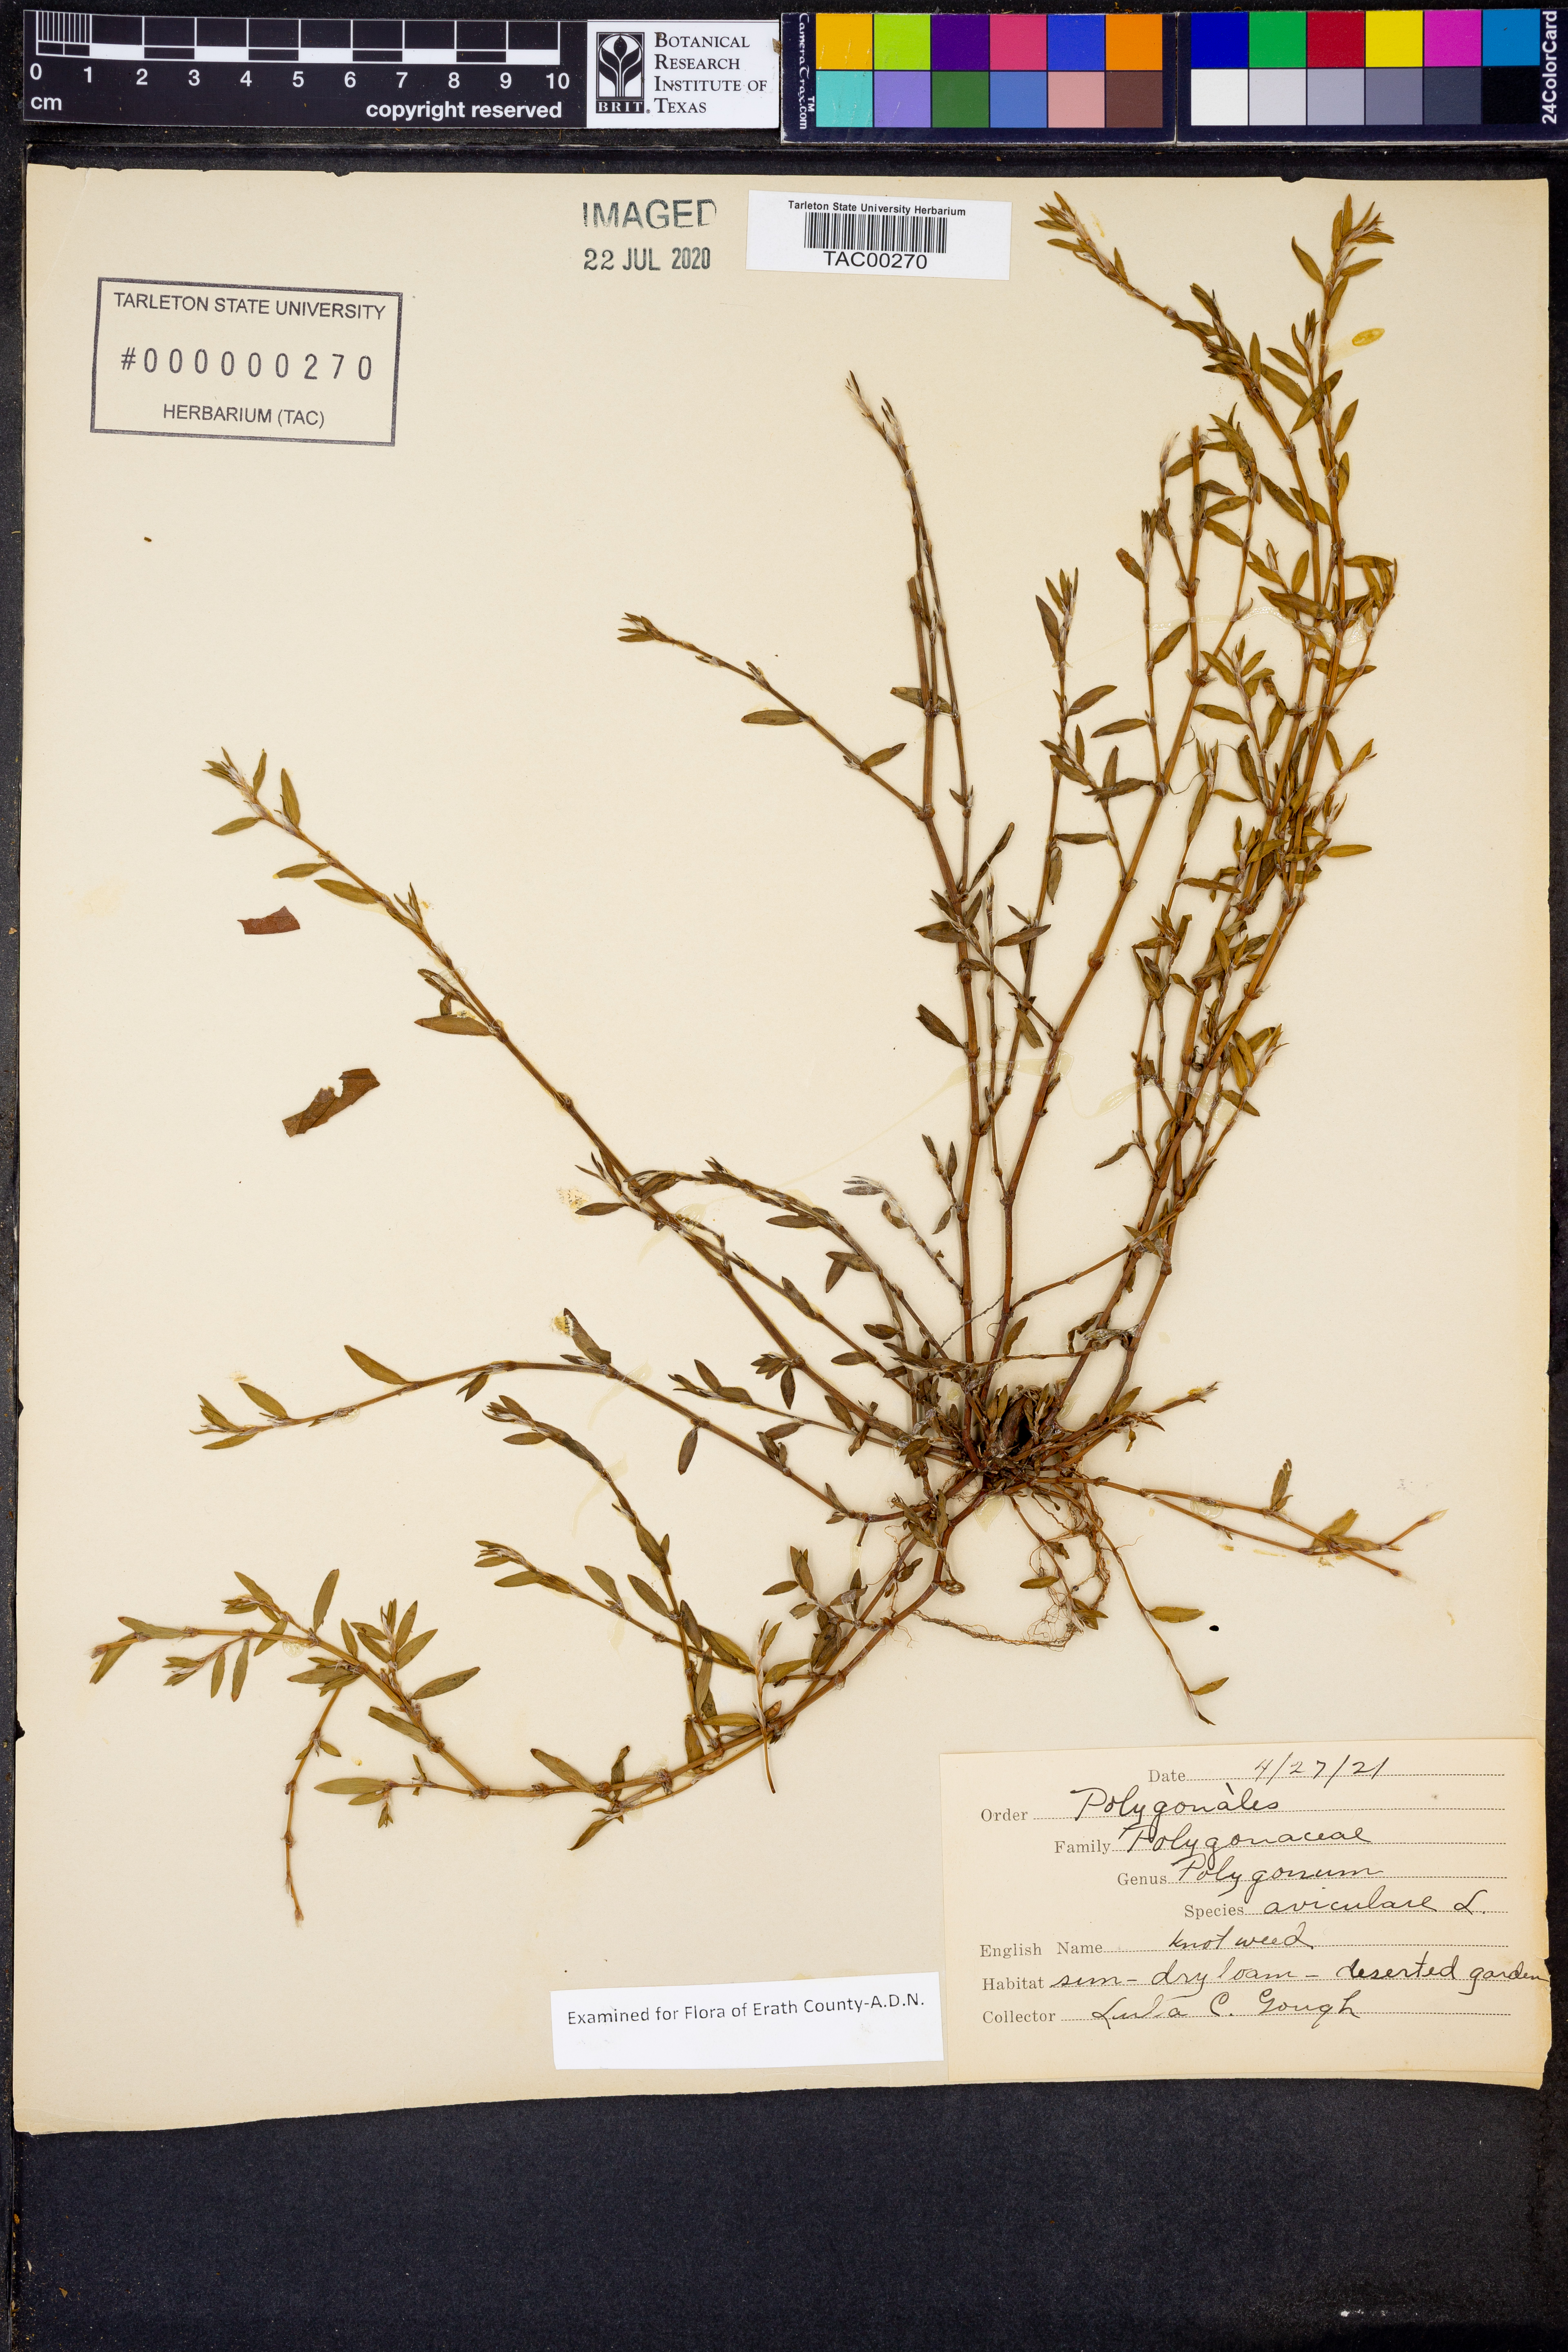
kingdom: Plantae
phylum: Tracheophyta
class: Magnoliopsida
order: Caryophyllales
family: Polygonaceae
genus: Polygonum
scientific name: Polygonum aviculare
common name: Prostrate knotweed
